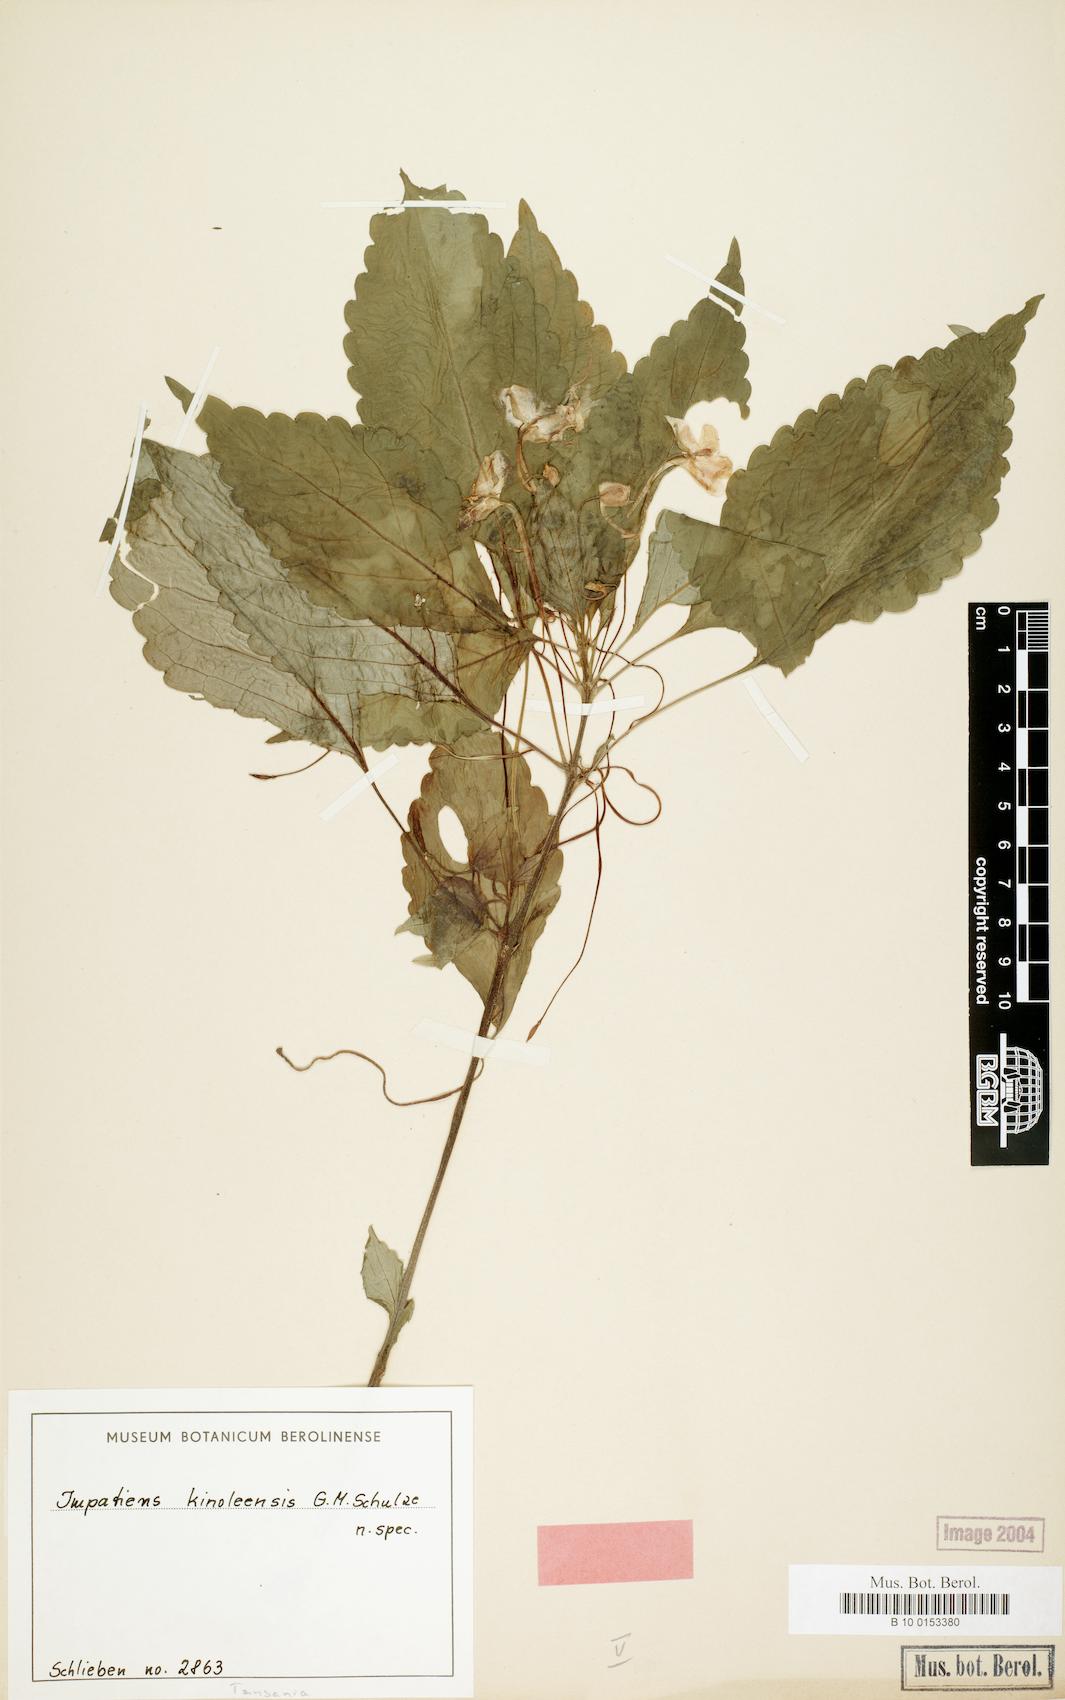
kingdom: Plantae
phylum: Tracheophyta
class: Magnoliopsida
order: Ericales
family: Balsaminaceae
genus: Impatiens
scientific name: Impatiens engleri
